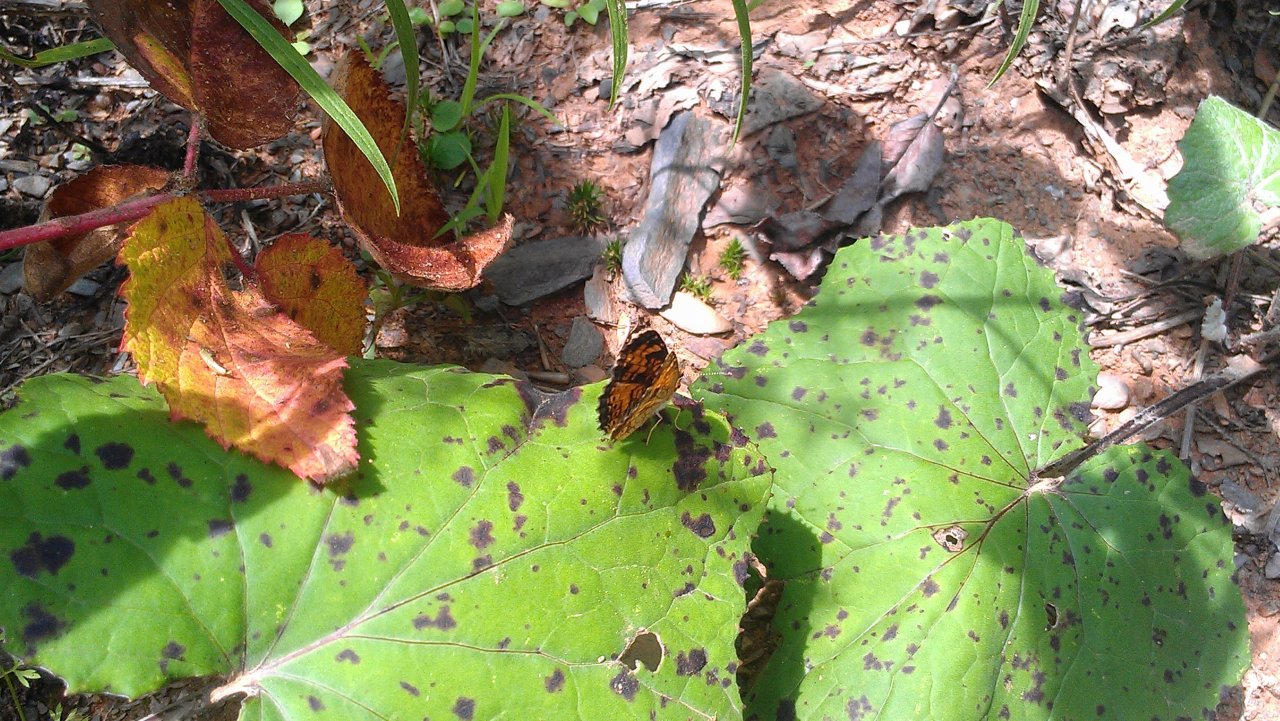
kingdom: Animalia
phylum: Arthropoda
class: Insecta
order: Lepidoptera
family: Nymphalidae
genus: Phyciodes
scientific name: Phyciodes tharos
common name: Northern Crescent
